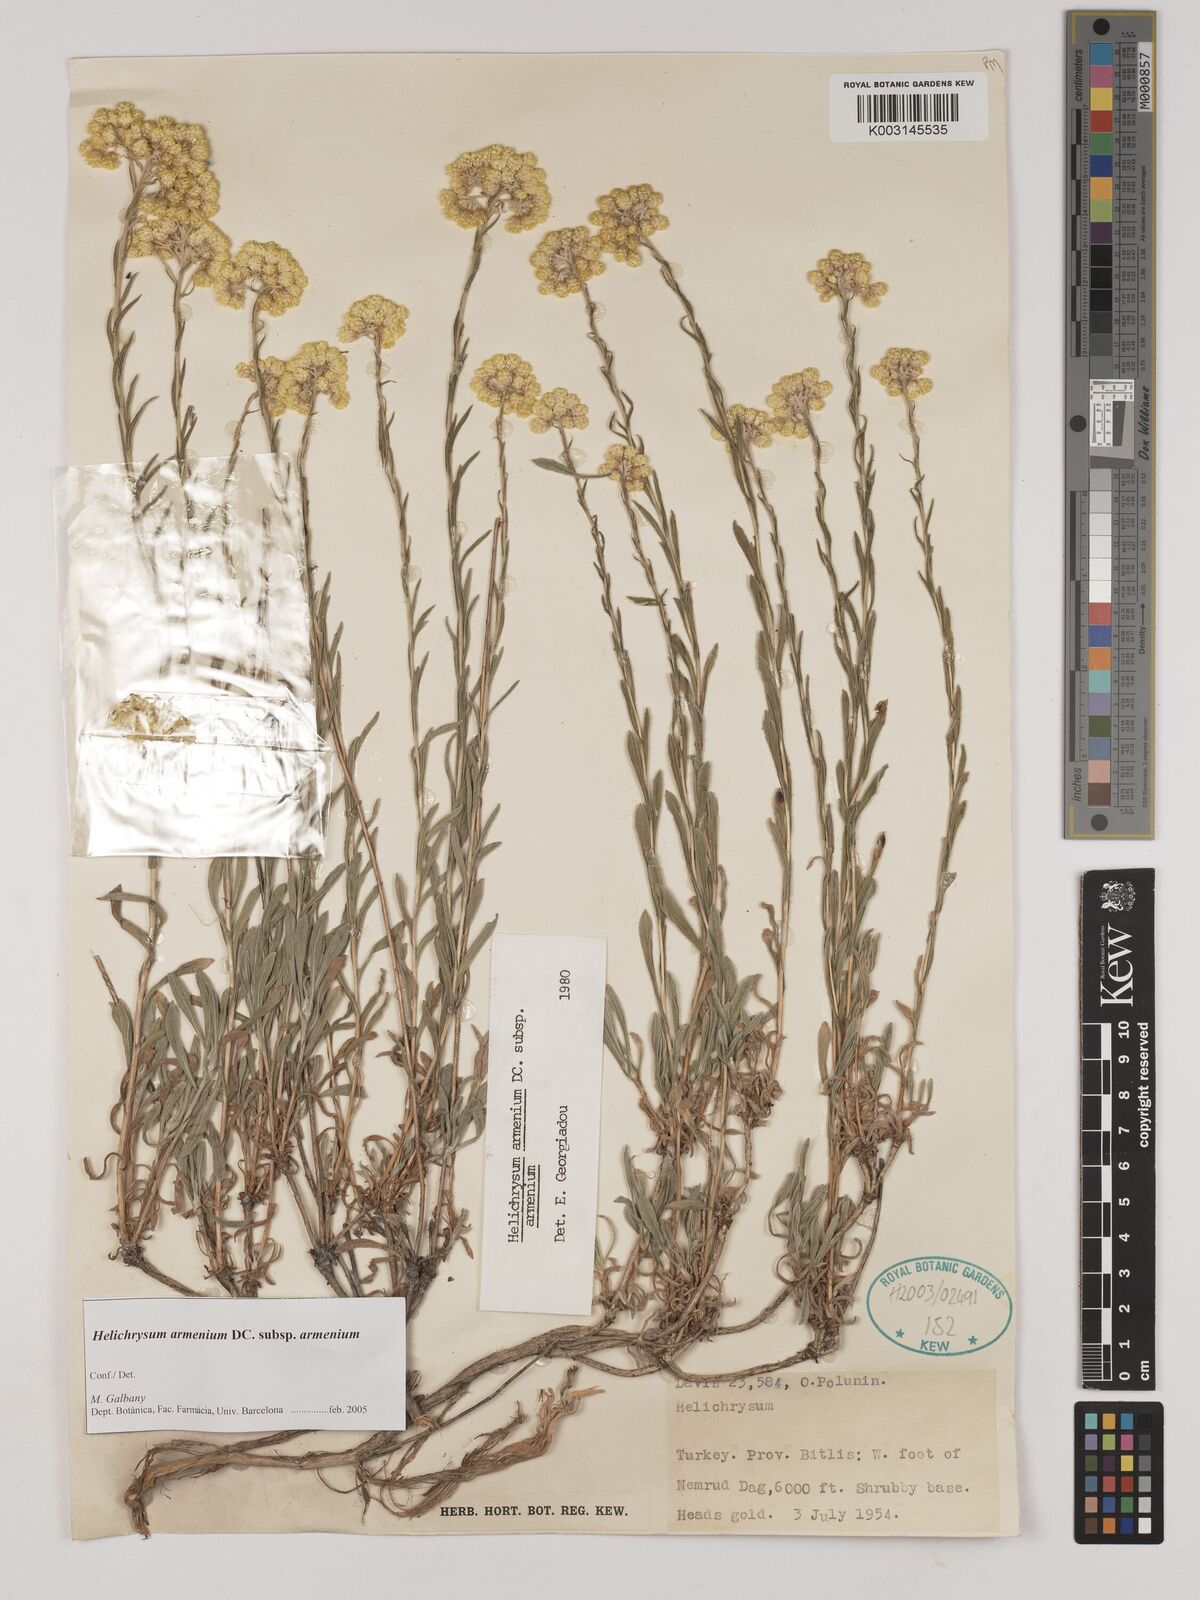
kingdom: Plantae
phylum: Tracheophyta
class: Magnoliopsida
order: Asterales
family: Asteraceae
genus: Helichrysum
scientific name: Helichrysum armenium
